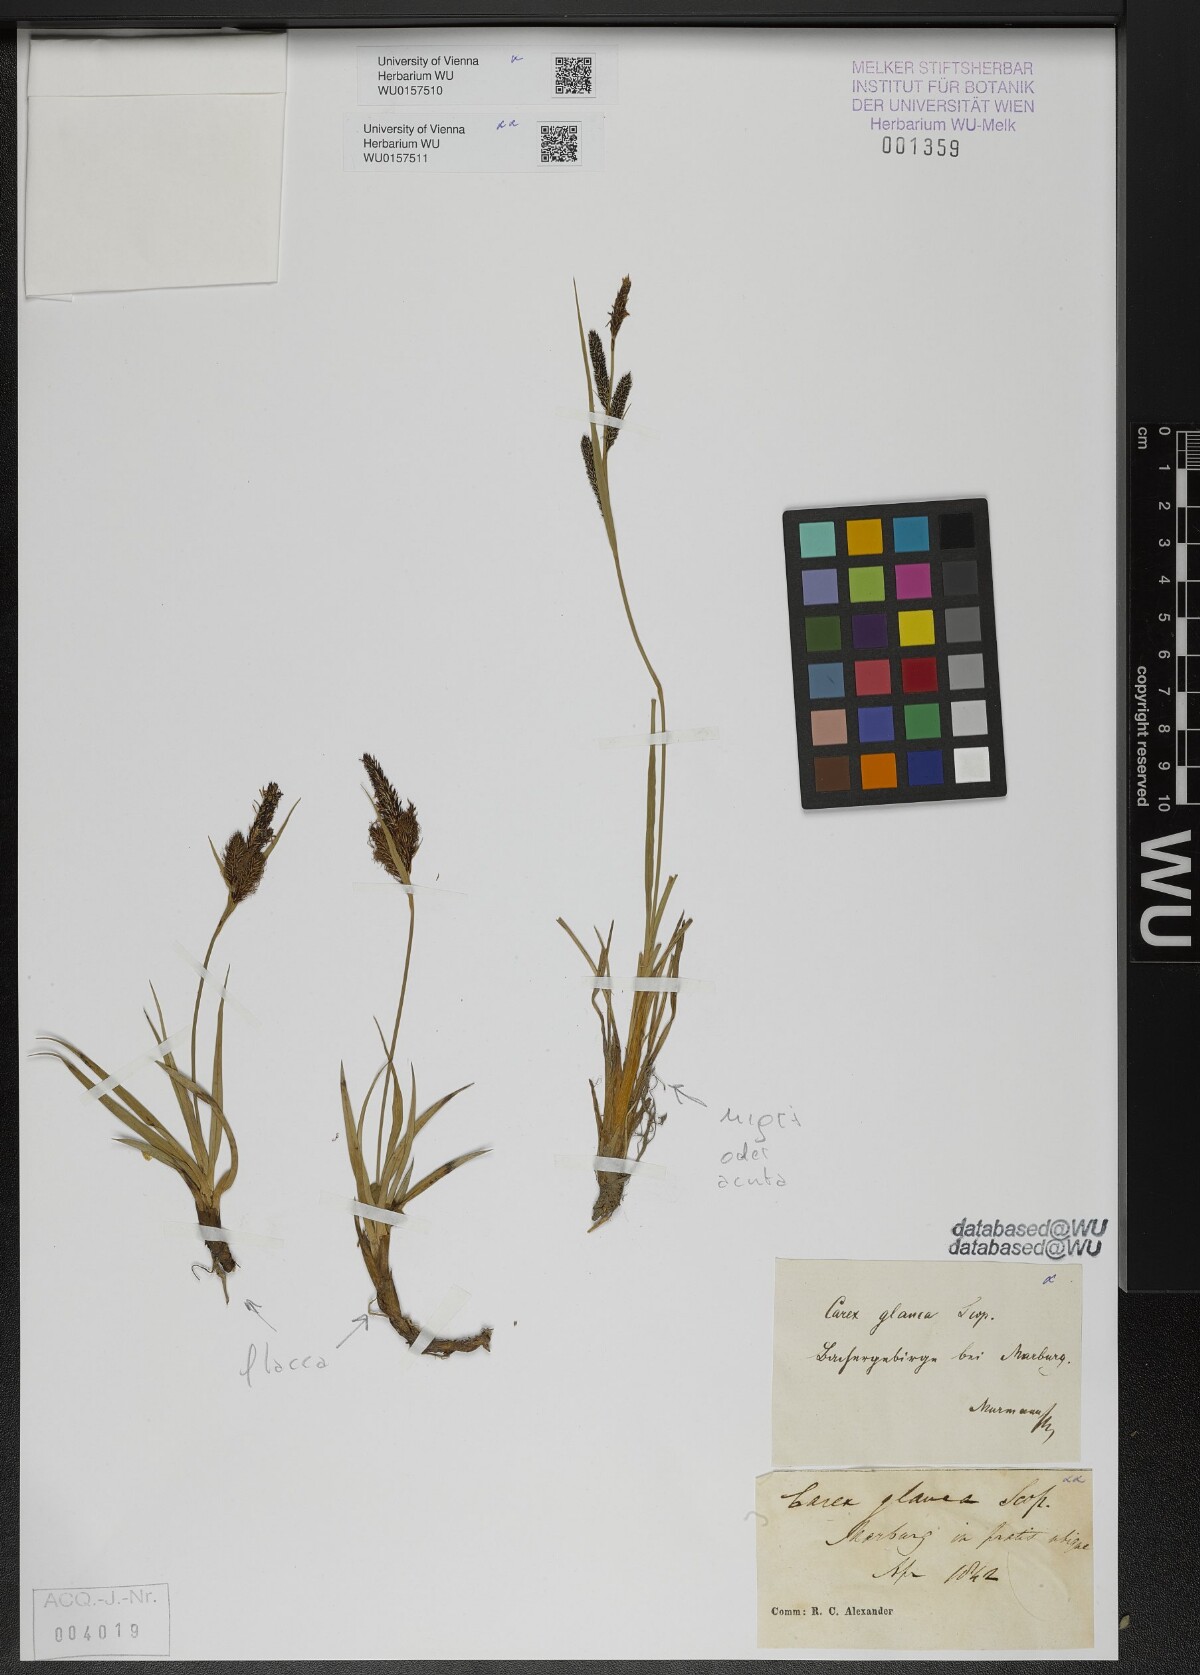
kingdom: Plantae
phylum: Tracheophyta
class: Liliopsida
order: Poales
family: Cyperaceae
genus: Carex
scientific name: Carex flacca
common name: Glaucous sedge
